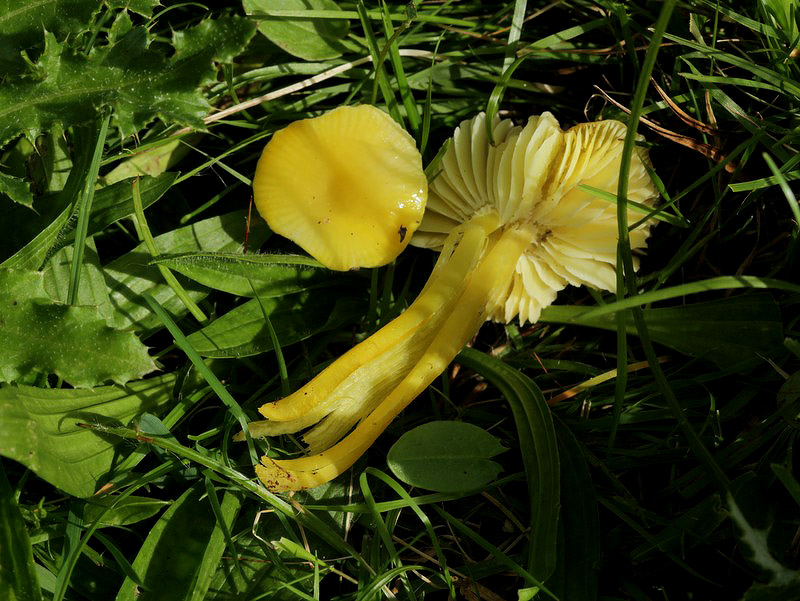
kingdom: Fungi
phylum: Basidiomycota
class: Agaricomycetes
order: Agaricales
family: Hygrophoraceae
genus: Hygrocybe
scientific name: Hygrocybe chlorophana
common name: gul vokshat
